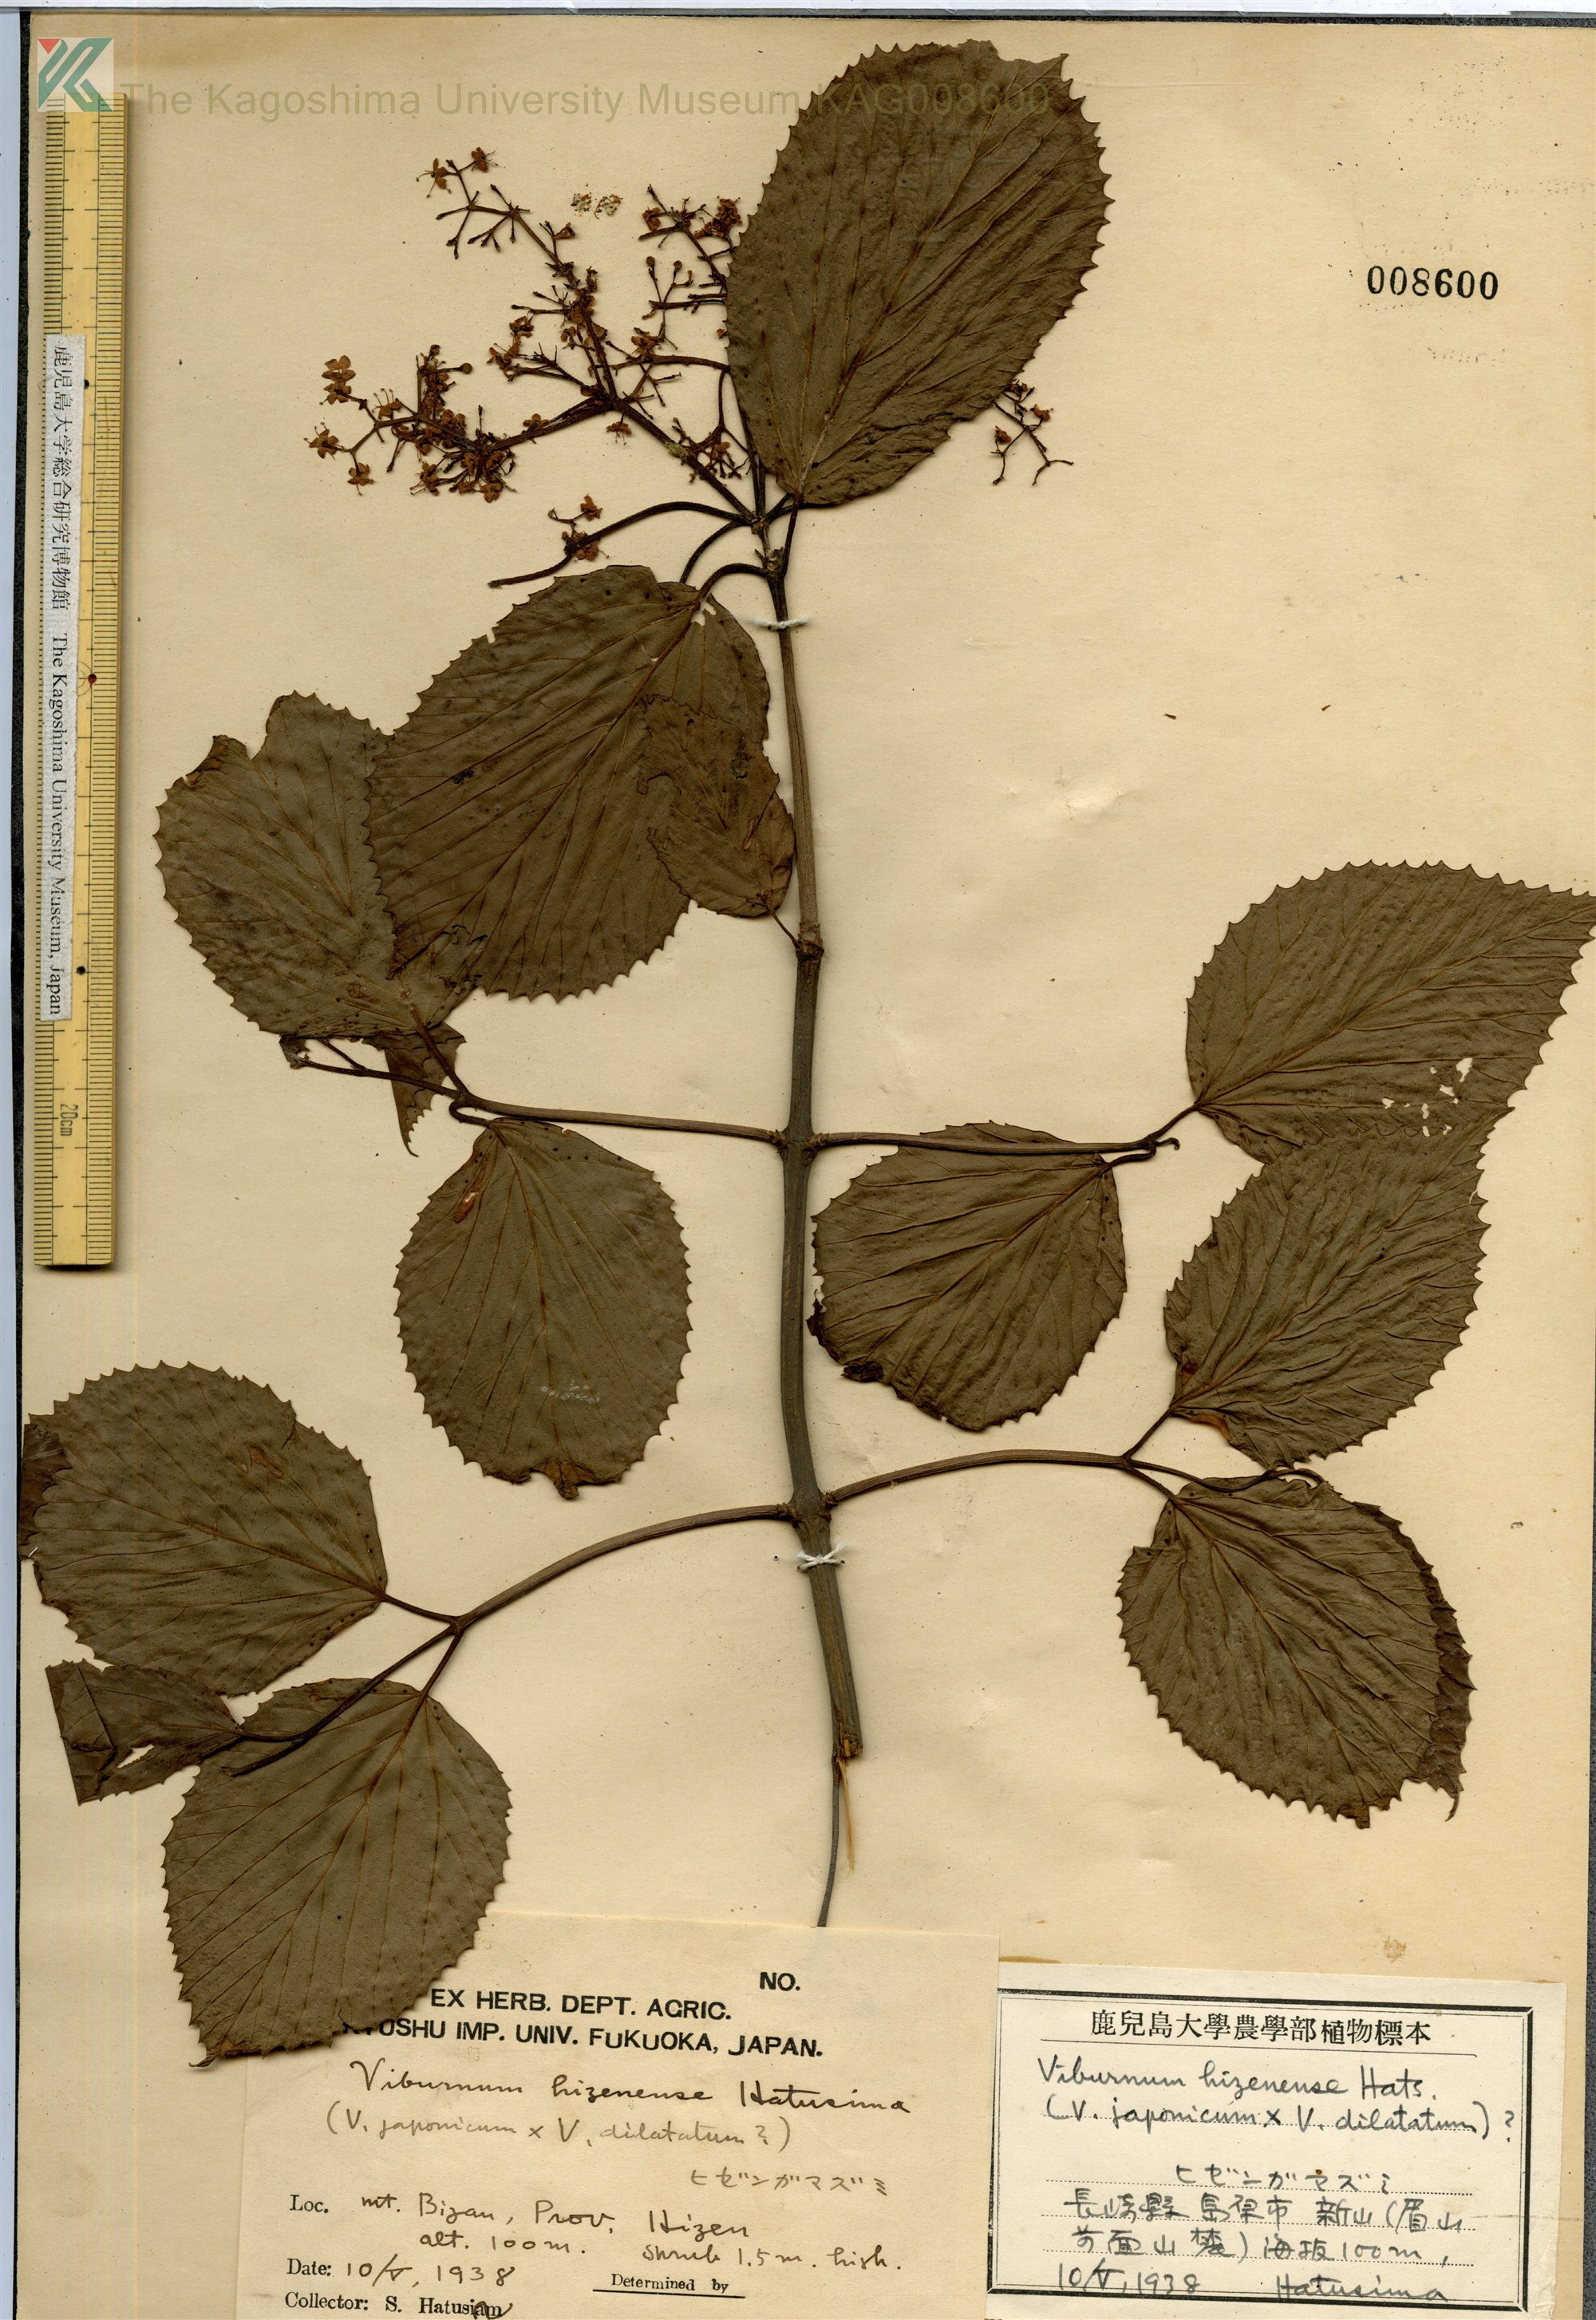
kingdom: Plantae
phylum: Tracheophyta
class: Magnoliopsida
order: Dipsacales
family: Viburnaceae
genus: Viburnum
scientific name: Viburnum hizenense
